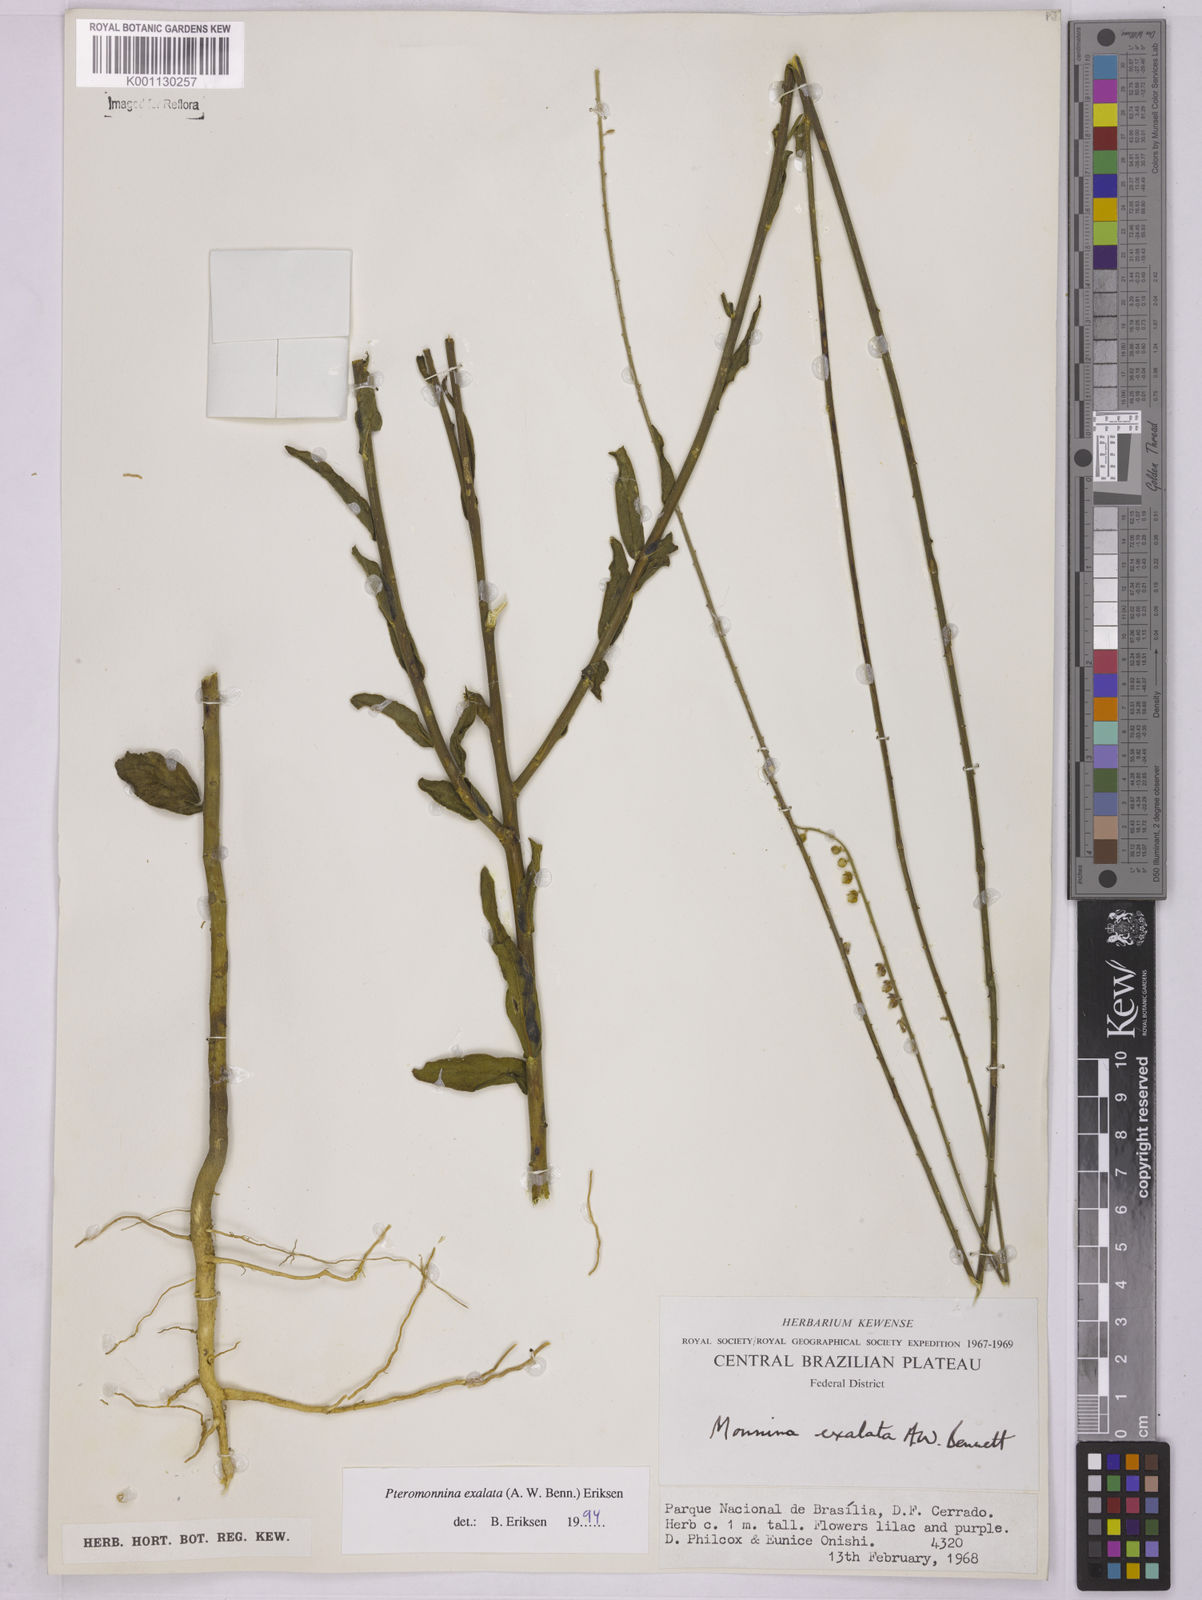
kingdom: Plantae
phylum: Tracheophyta
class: Magnoliopsida
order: Fabales
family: Polygalaceae
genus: Monnina
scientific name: Monnina exalata
